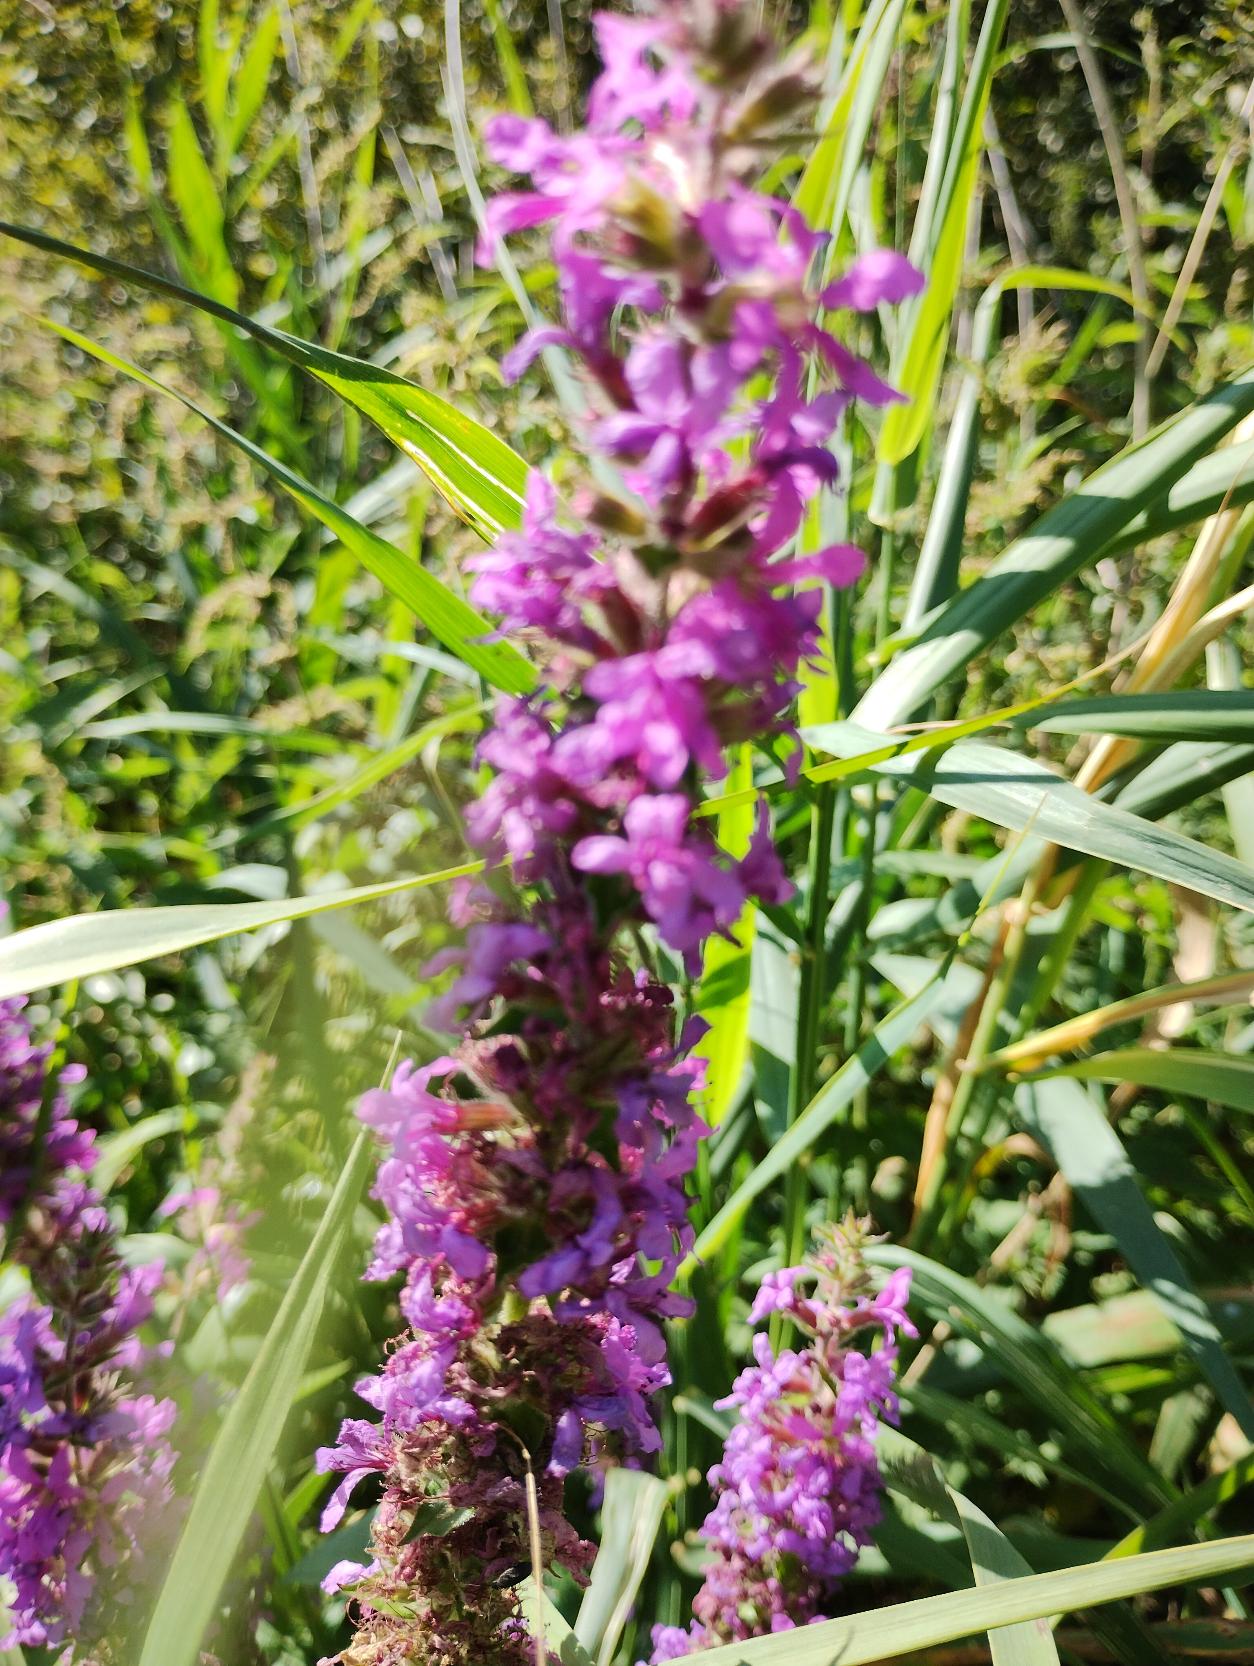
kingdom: Plantae
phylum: Tracheophyta
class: Magnoliopsida
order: Myrtales
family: Lythraceae
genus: Lythrum
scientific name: Lythrum salicaria
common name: Kattehale
